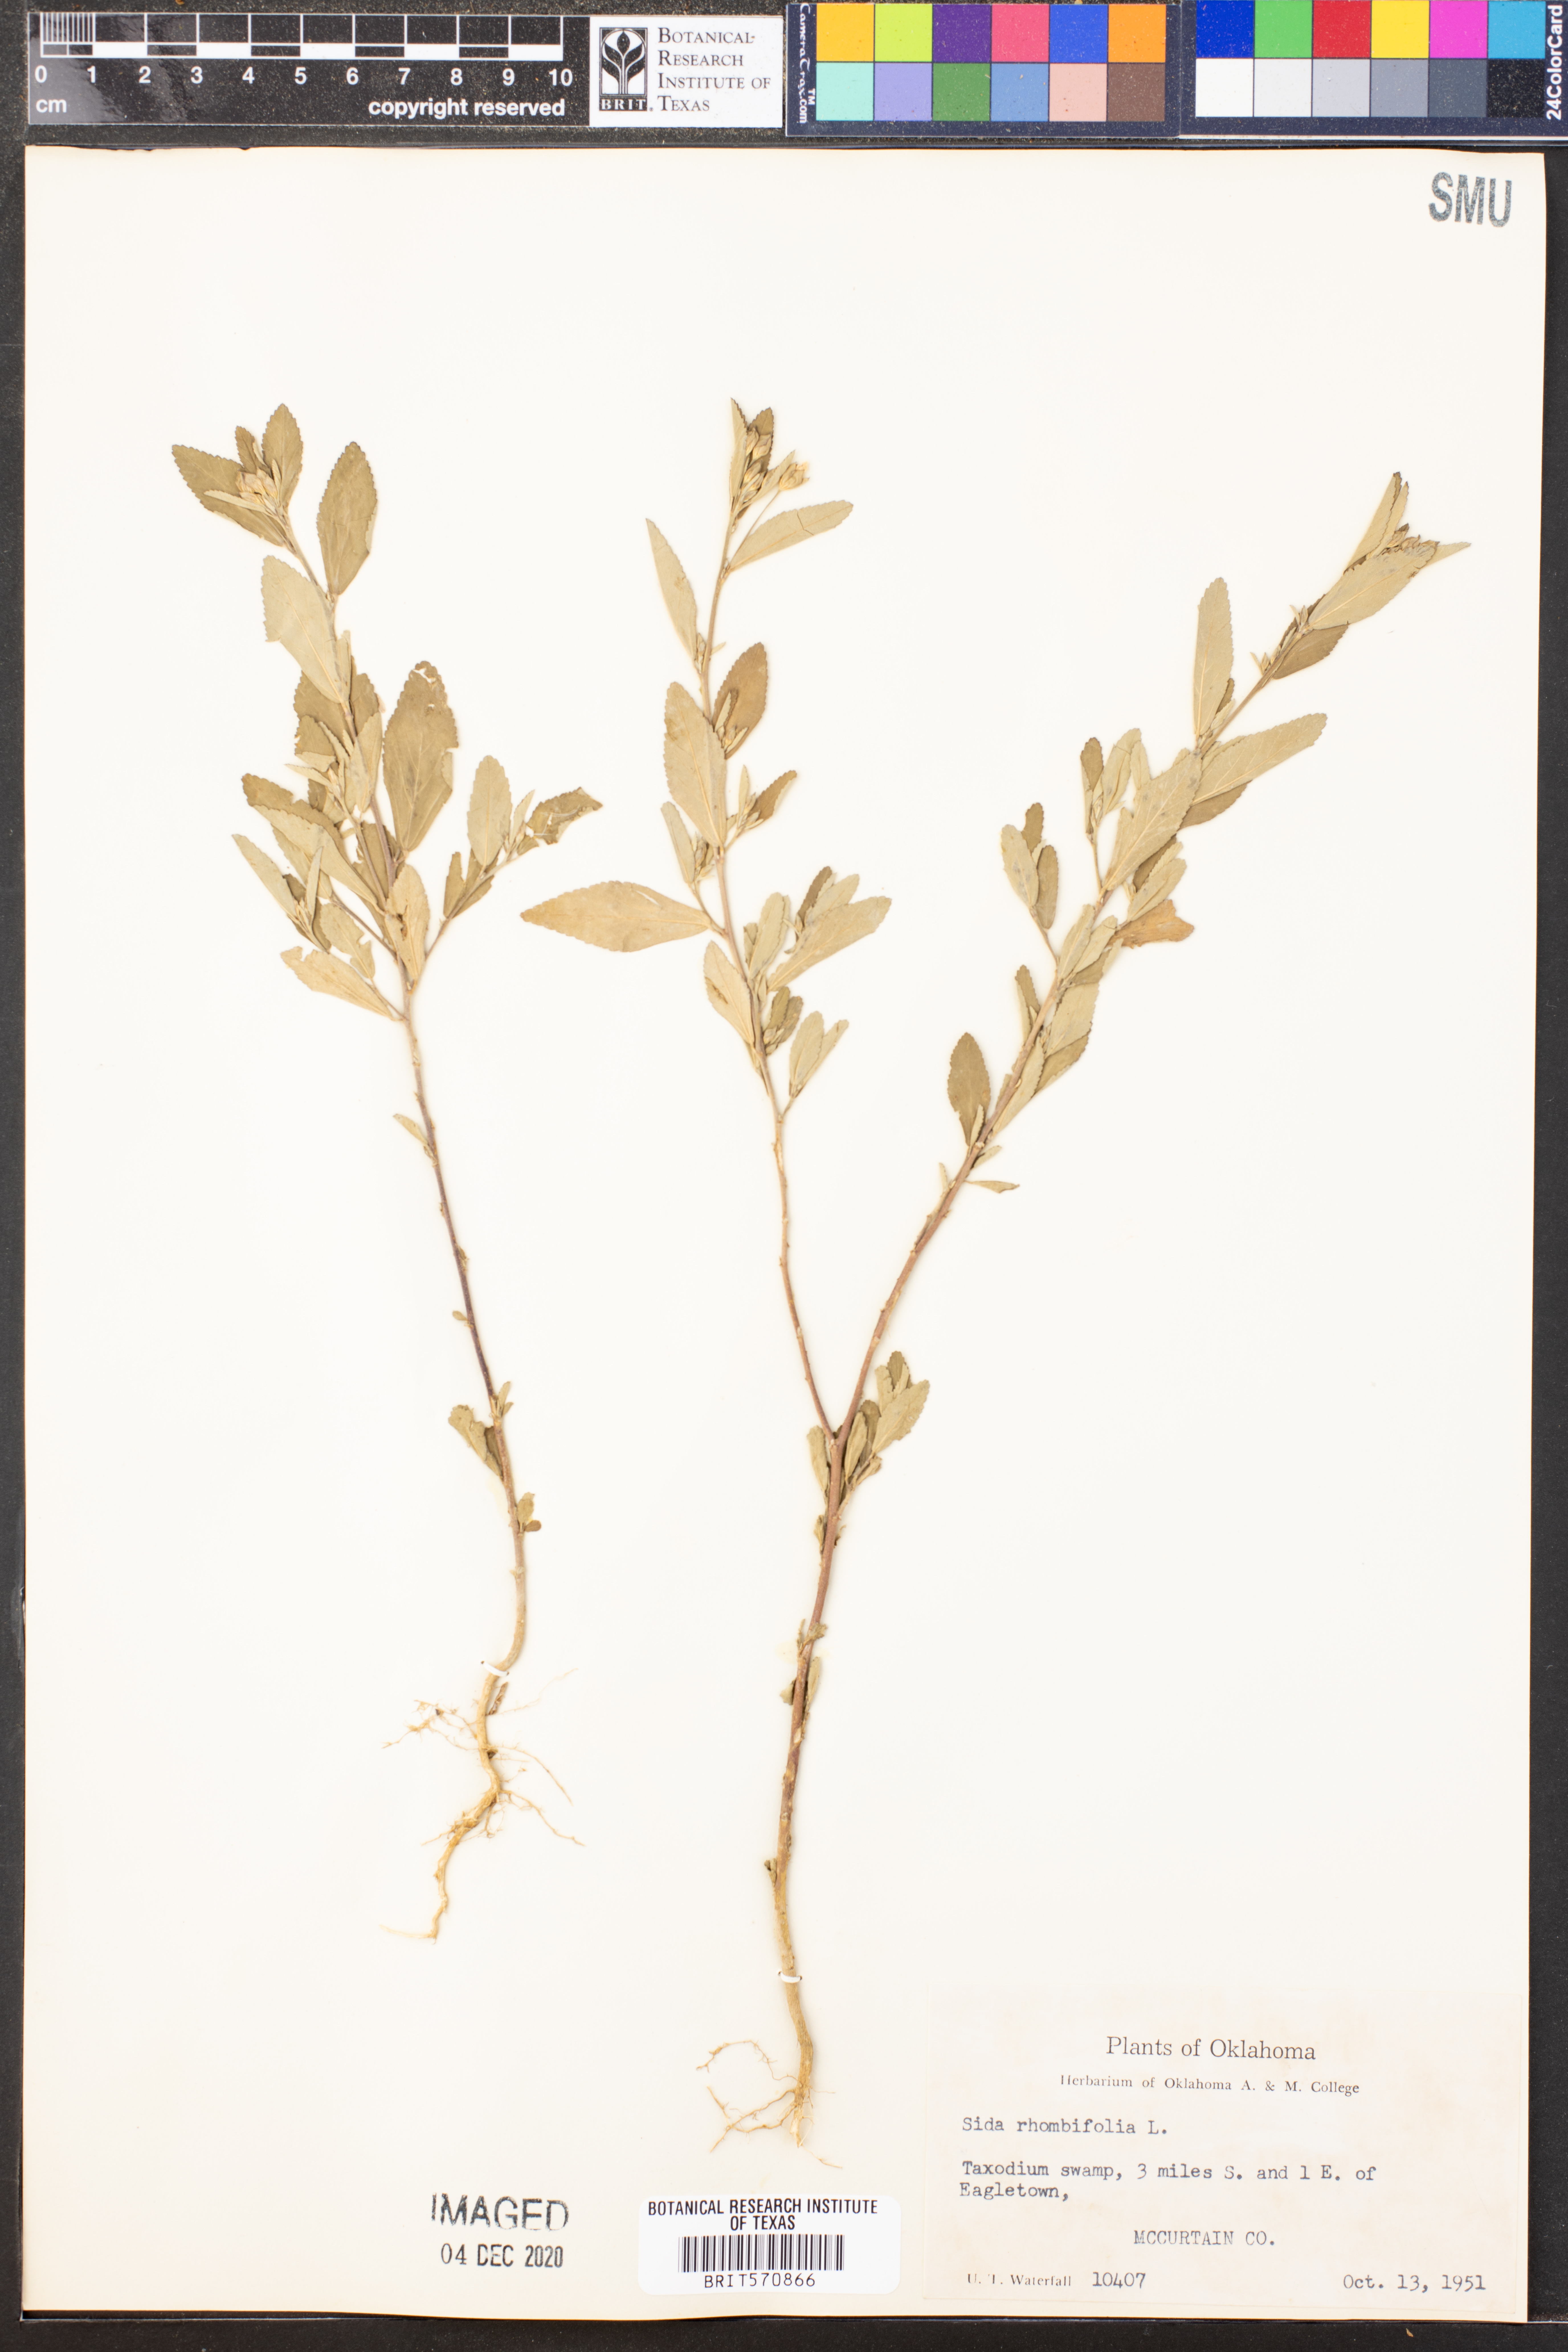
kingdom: Plantae
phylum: Tracheophyta
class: Magnoliopsida
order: Malvales
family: Malvaceae
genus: Sida
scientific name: Sida rhombifolia
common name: Queensland-hemp
